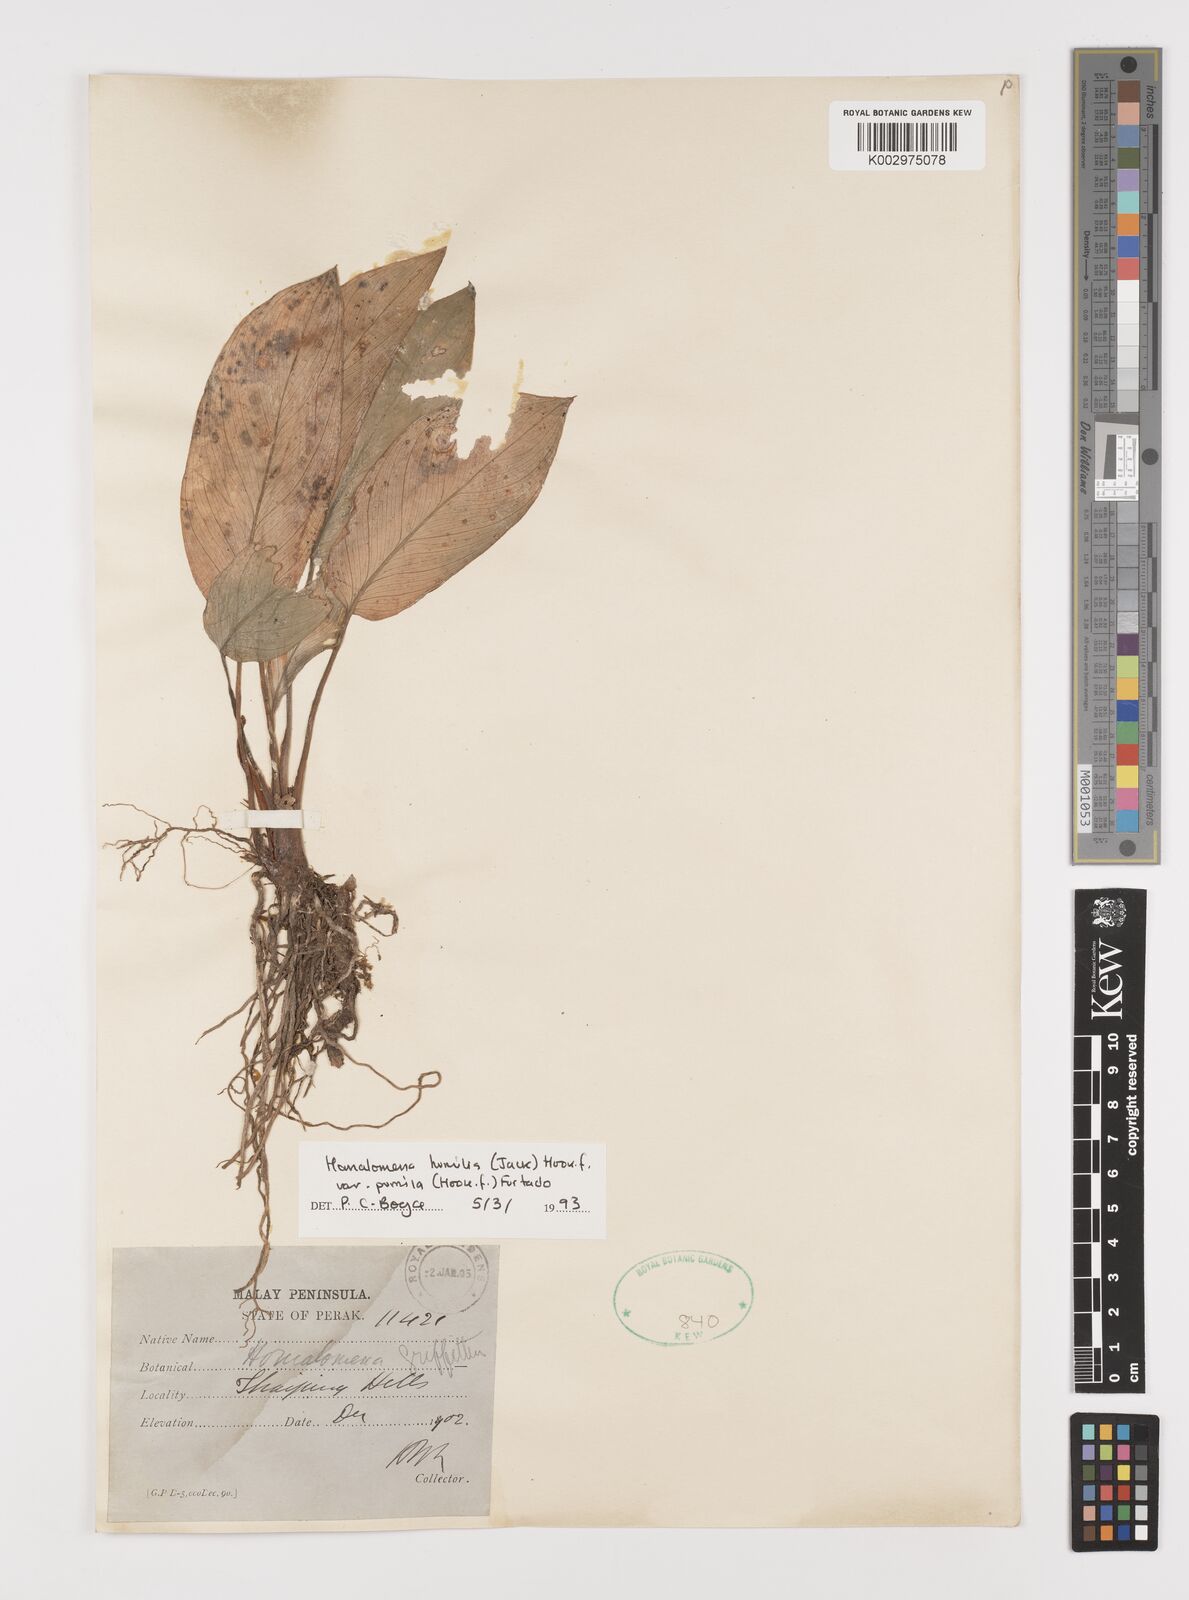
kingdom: Plantae
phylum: Tracheophyta
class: Liliopsida
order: Alismatales
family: Araceae
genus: Homalomena
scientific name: Homalomena humilis
